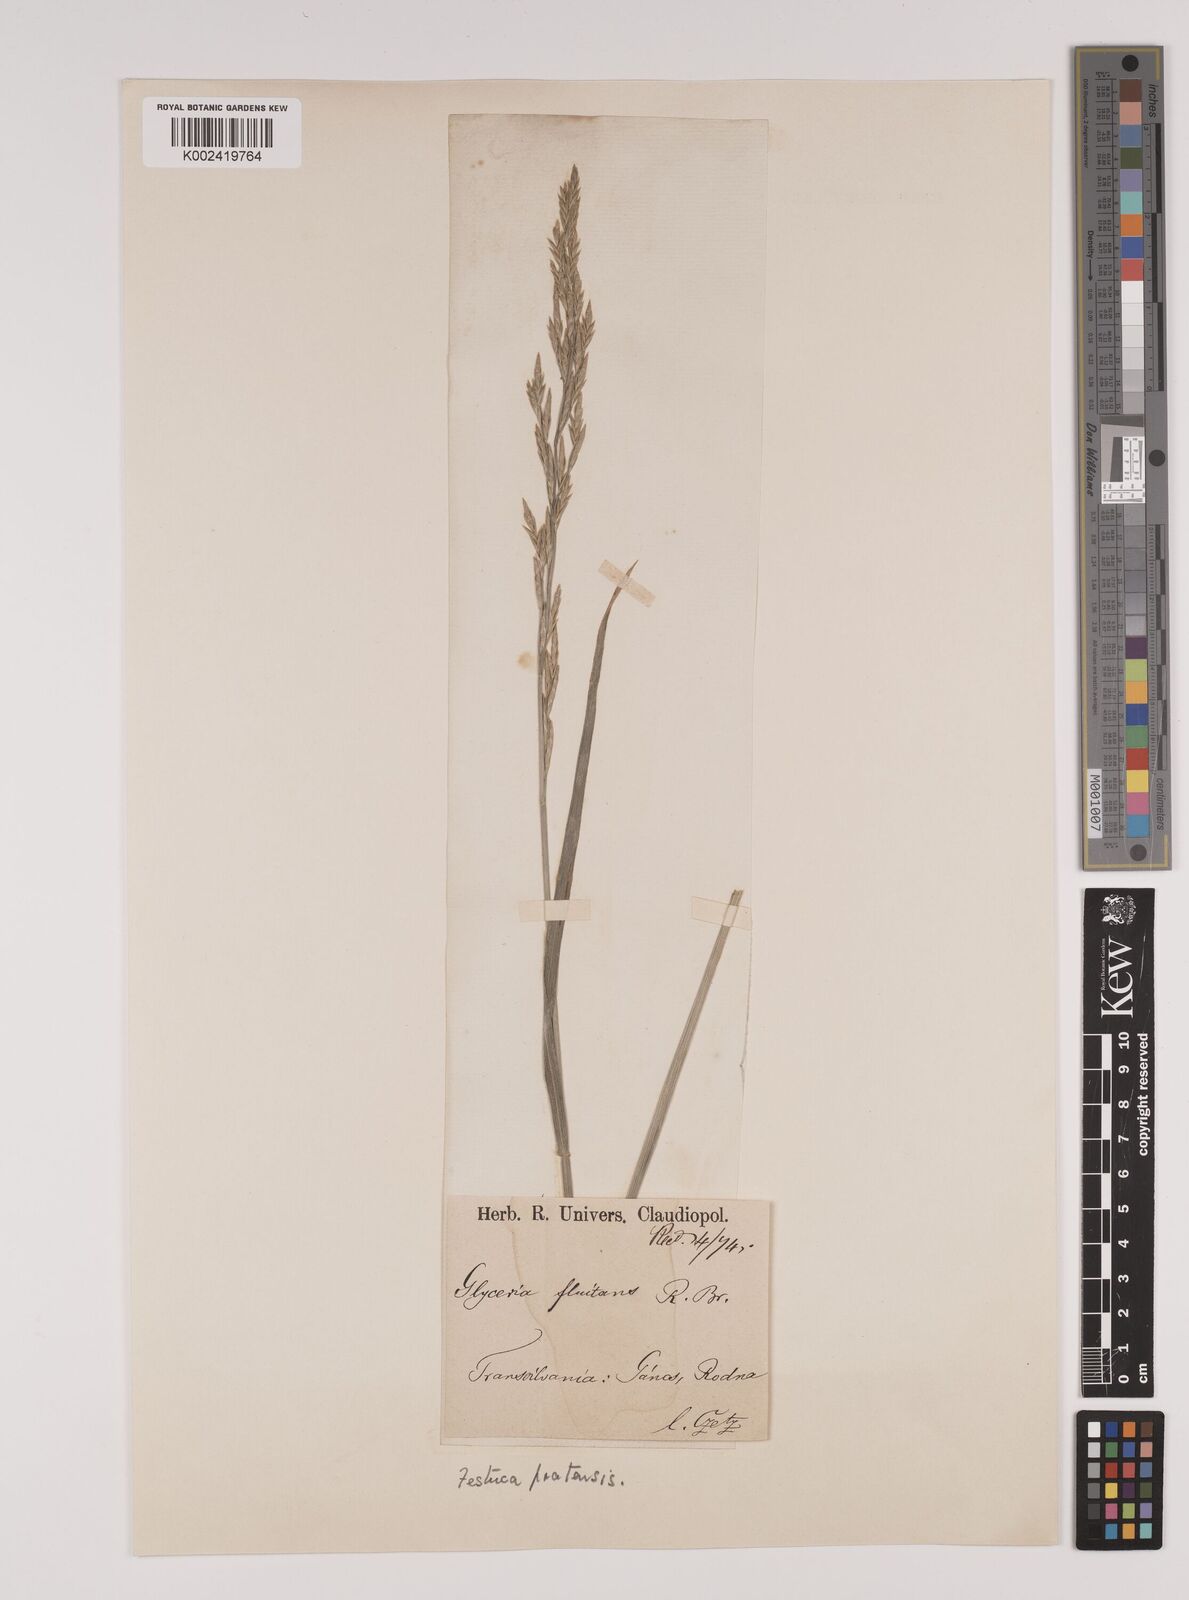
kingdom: Plantae
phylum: Tracheophyta
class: Liliopsida
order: Poales
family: Poaceae
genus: Lolium
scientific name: Lolium pratense
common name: Dover grass
